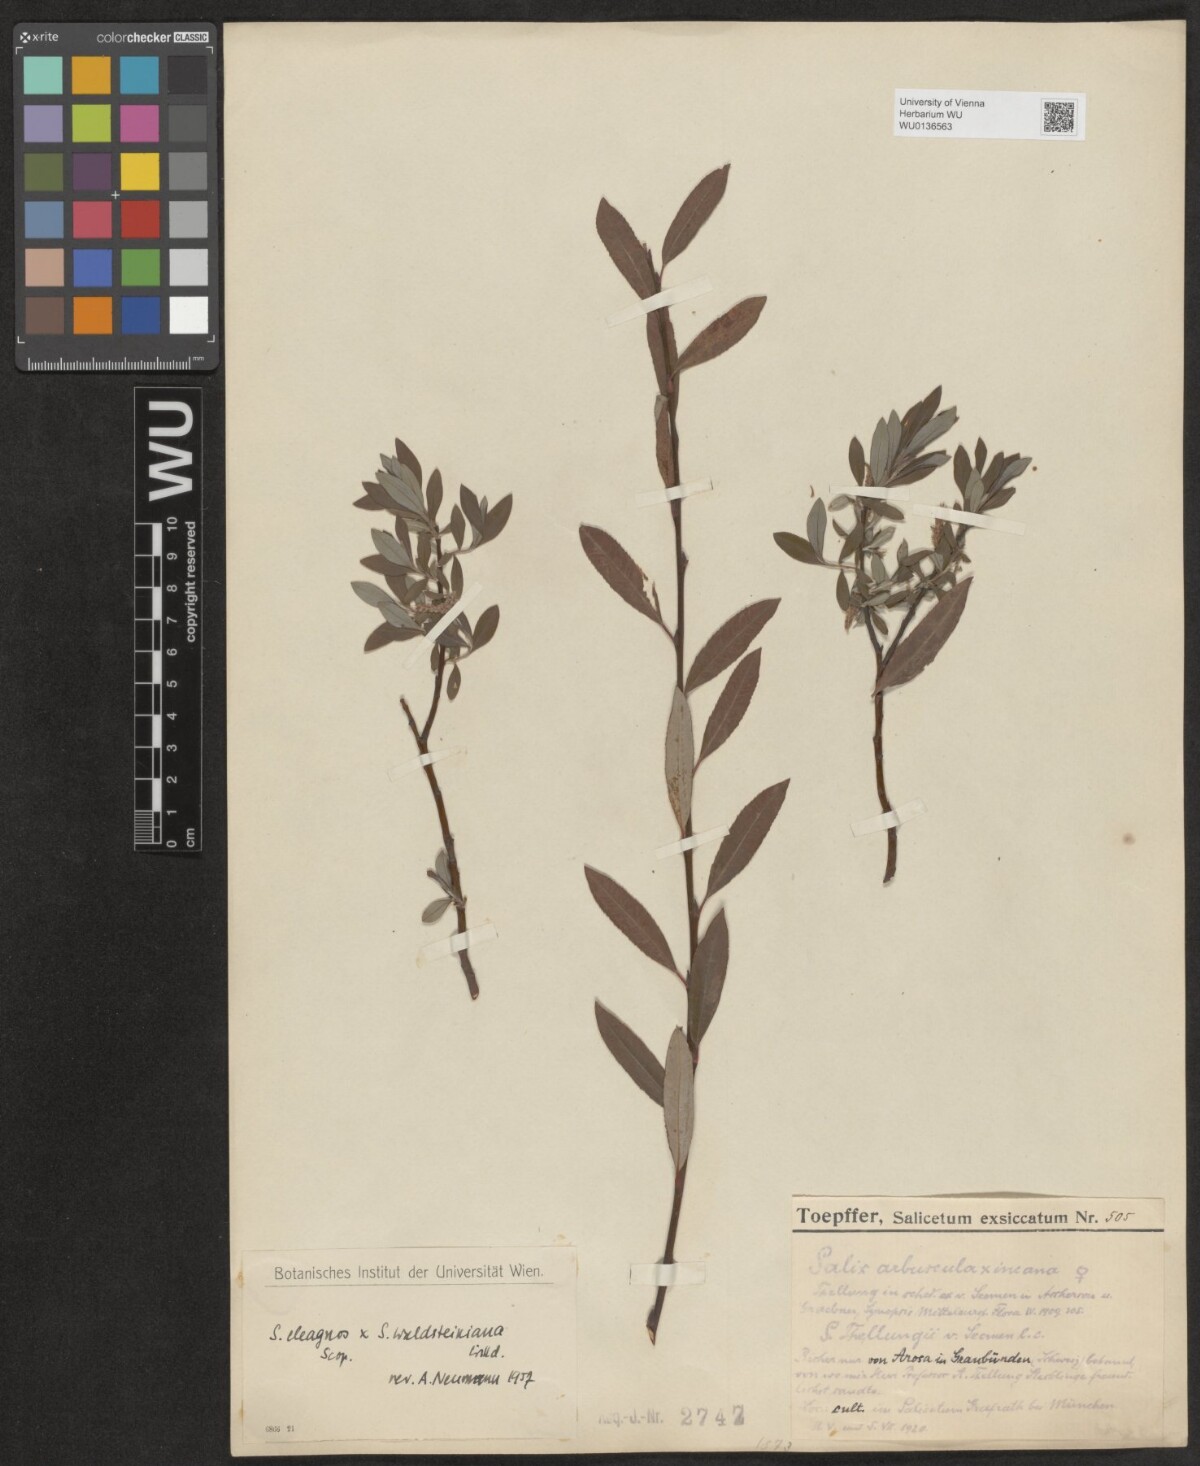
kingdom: Plantae
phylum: Tracheophyta
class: Magnoliopsida
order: Malpighiales
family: Salicaceae
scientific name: Salicaceae
